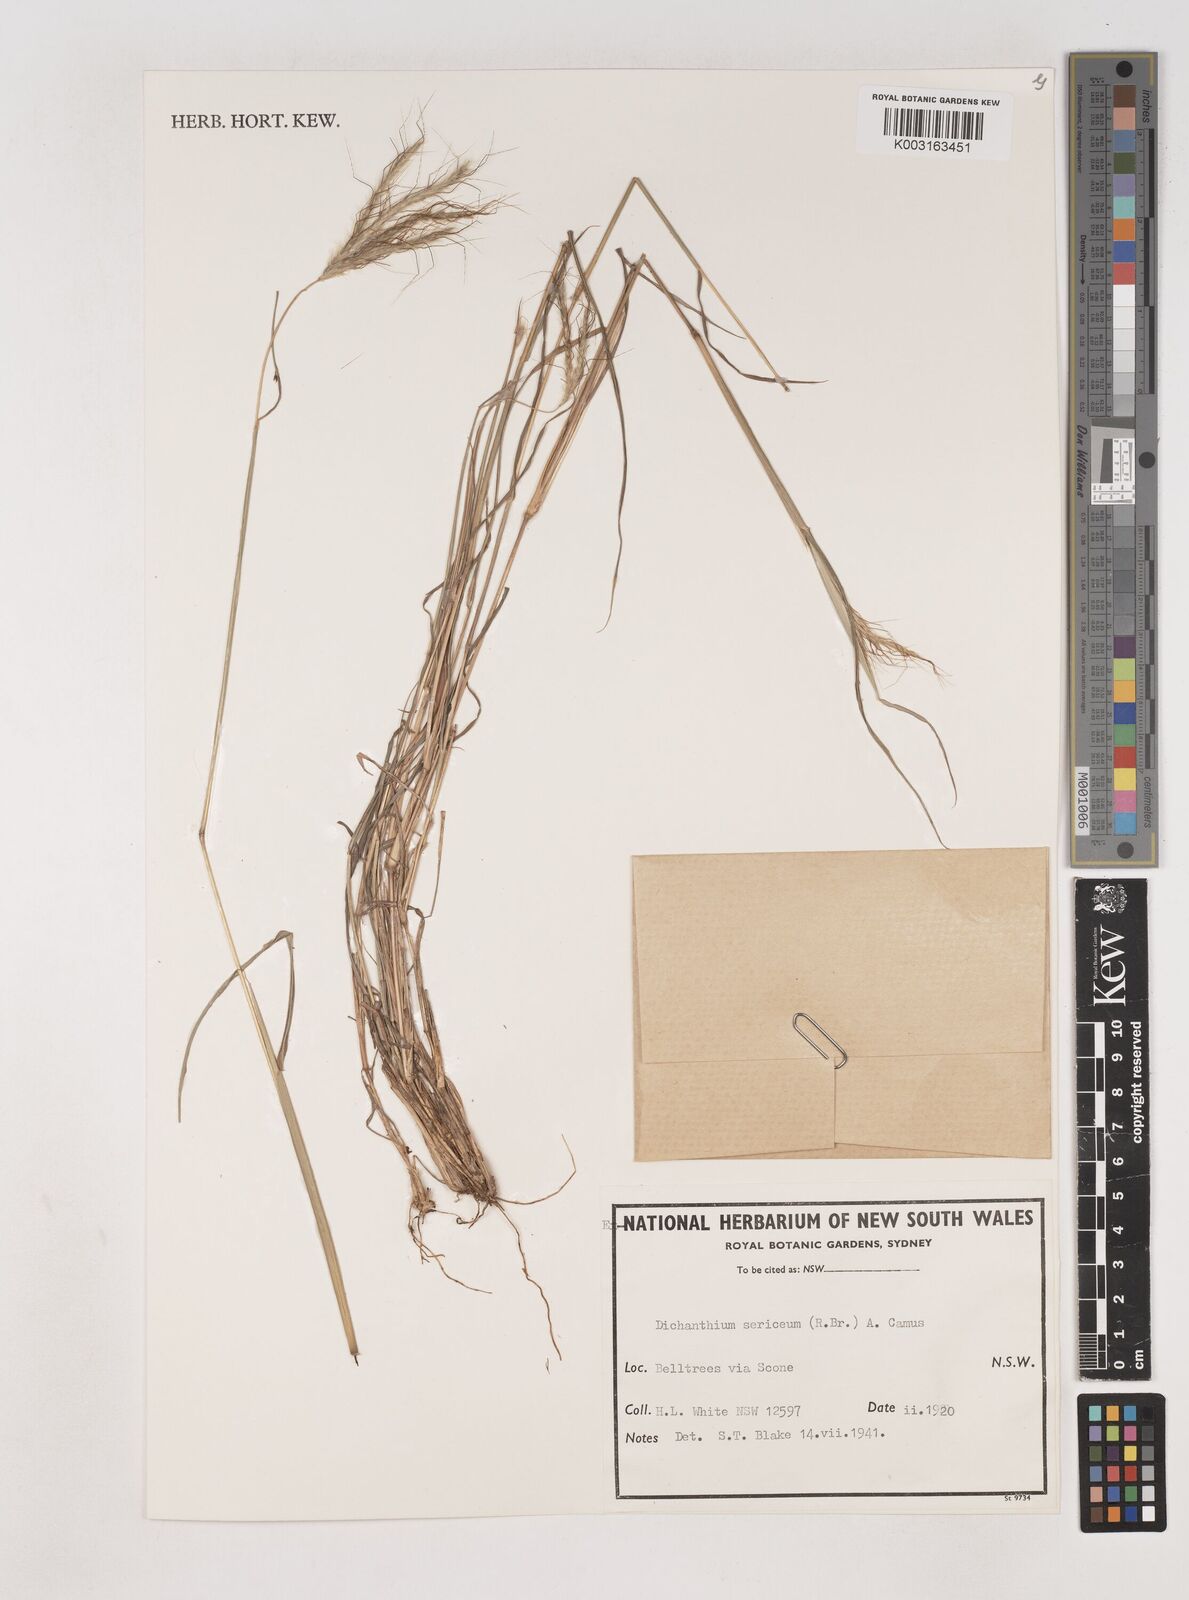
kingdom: Plantae
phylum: Tracheophyta
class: Liliopsida
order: Poales
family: Poaceae
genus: Dichanthium
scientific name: Dichanthium sericeum
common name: Silky bluestem
